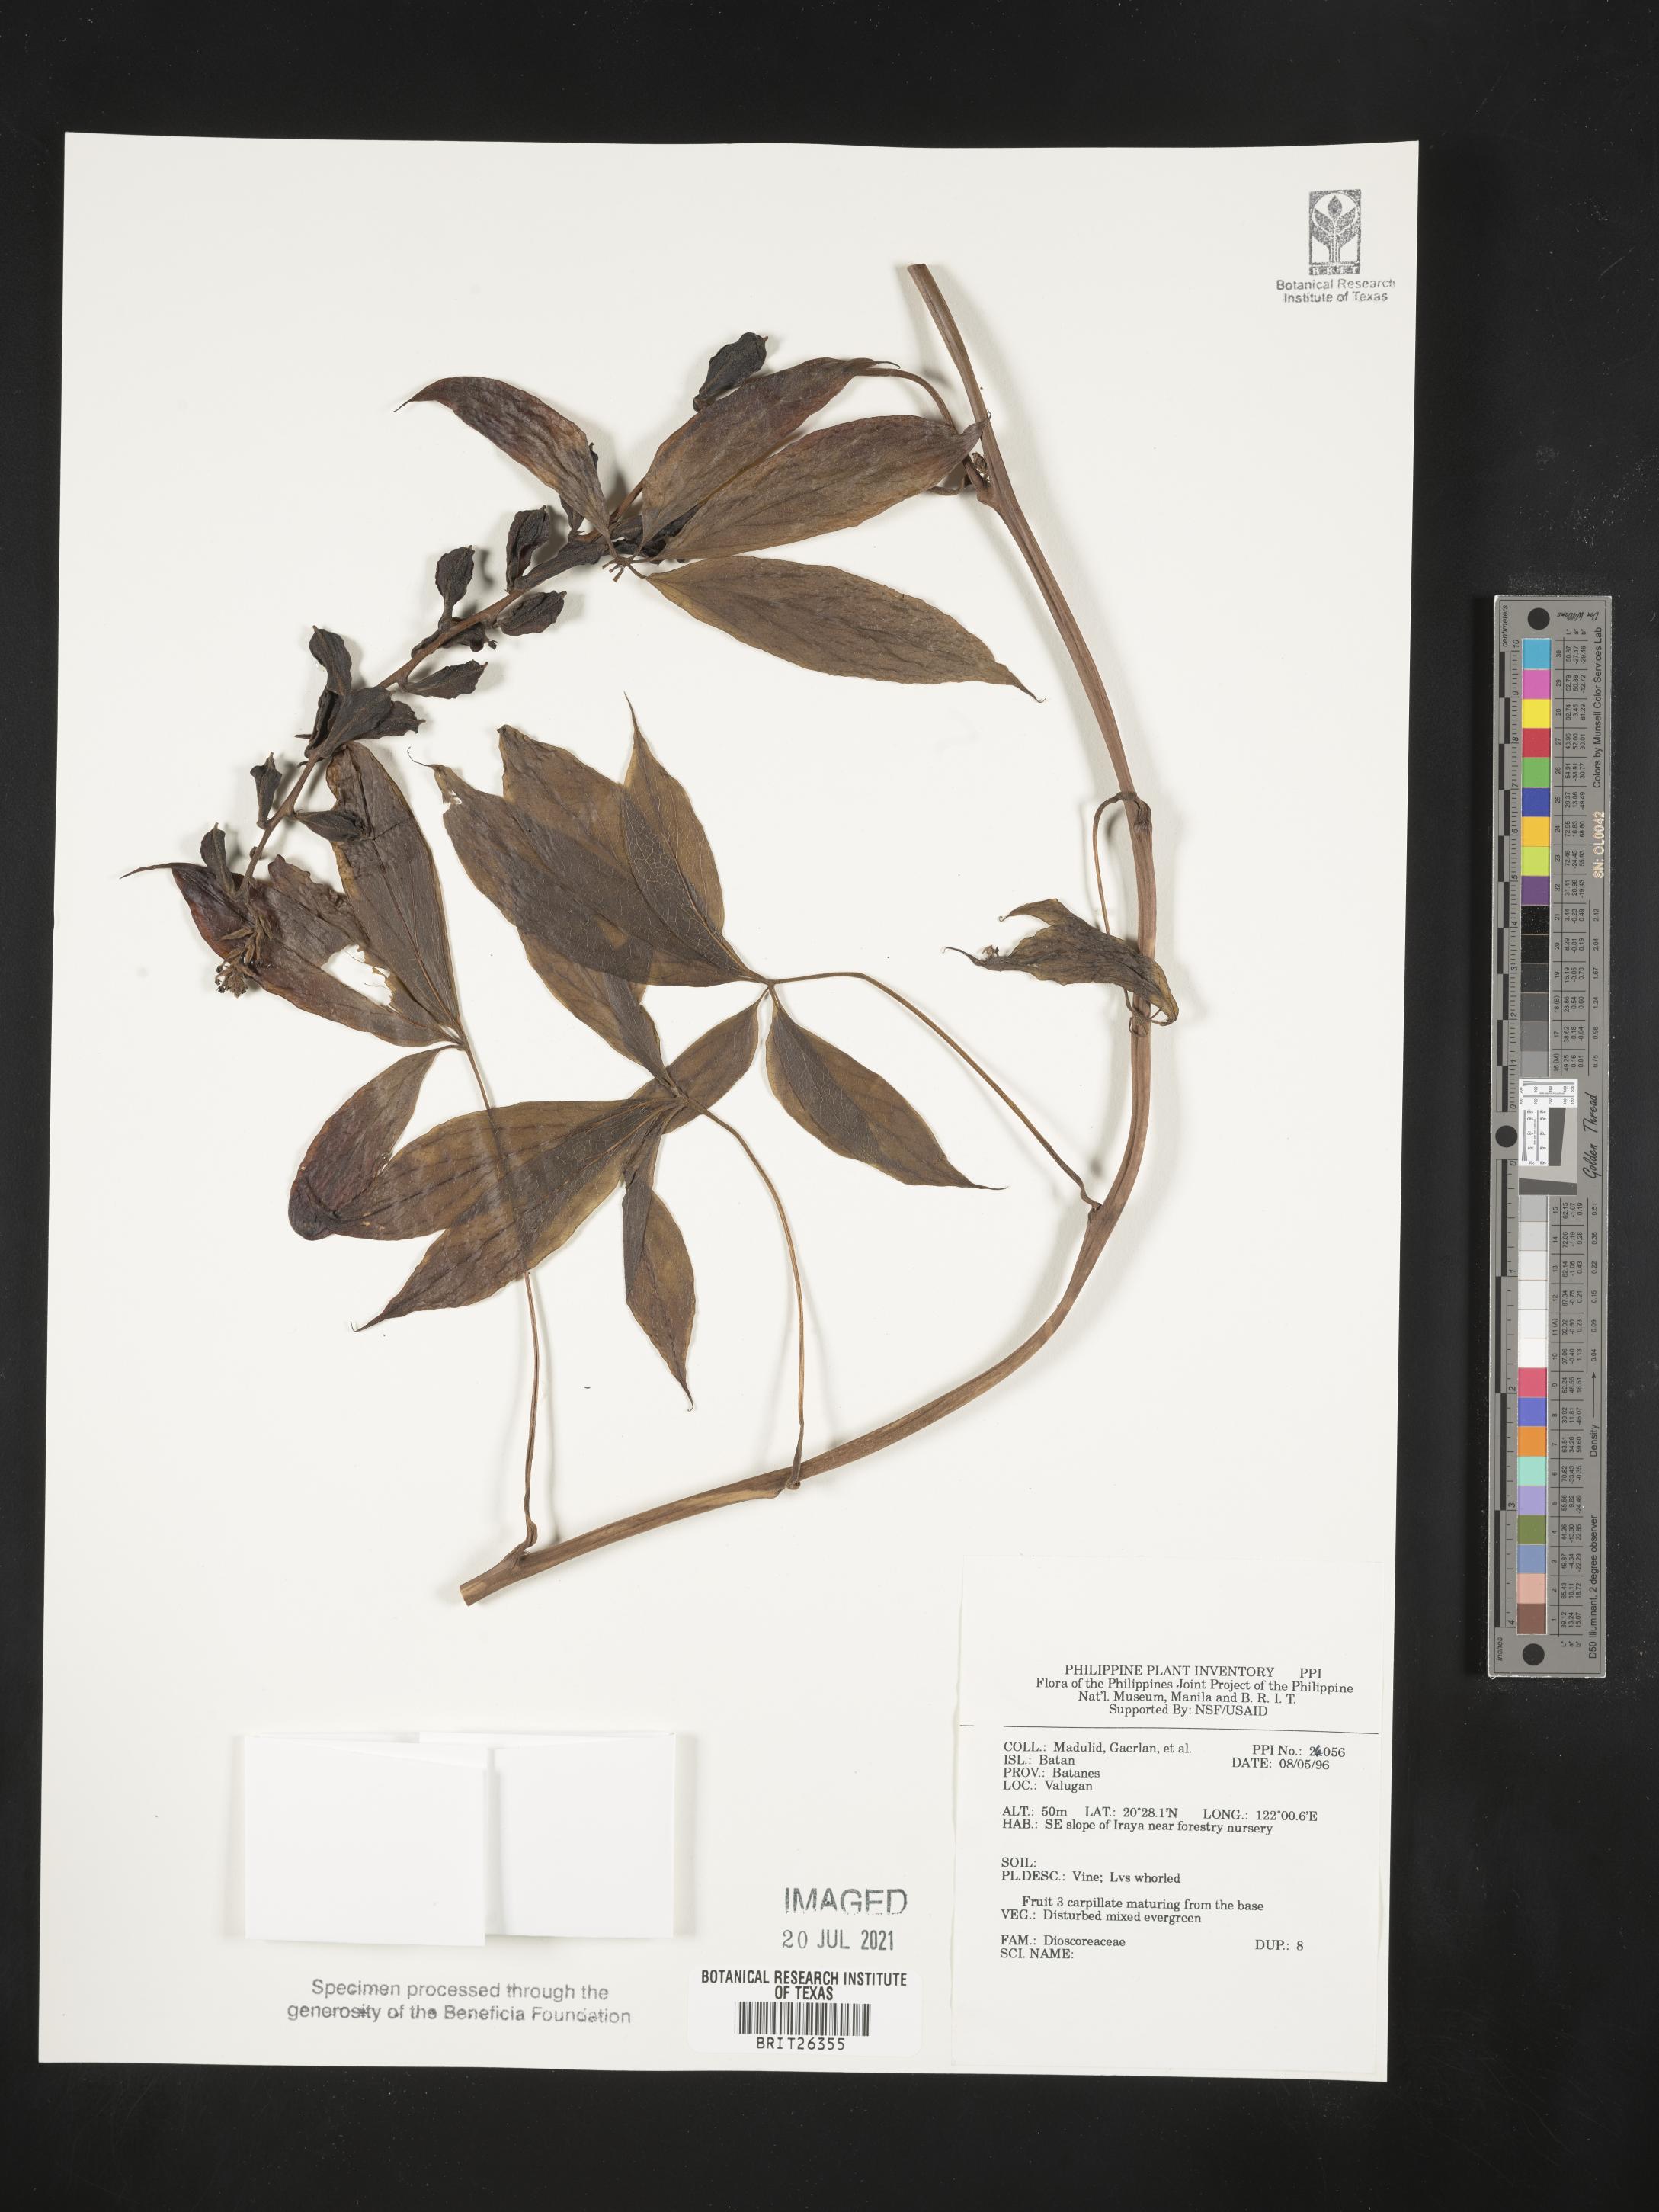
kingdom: Plantae
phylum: Tracheophyta
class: Liliopsida
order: Dioscoreales
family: Dioscoreaceae
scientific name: Dioscoreaceae
